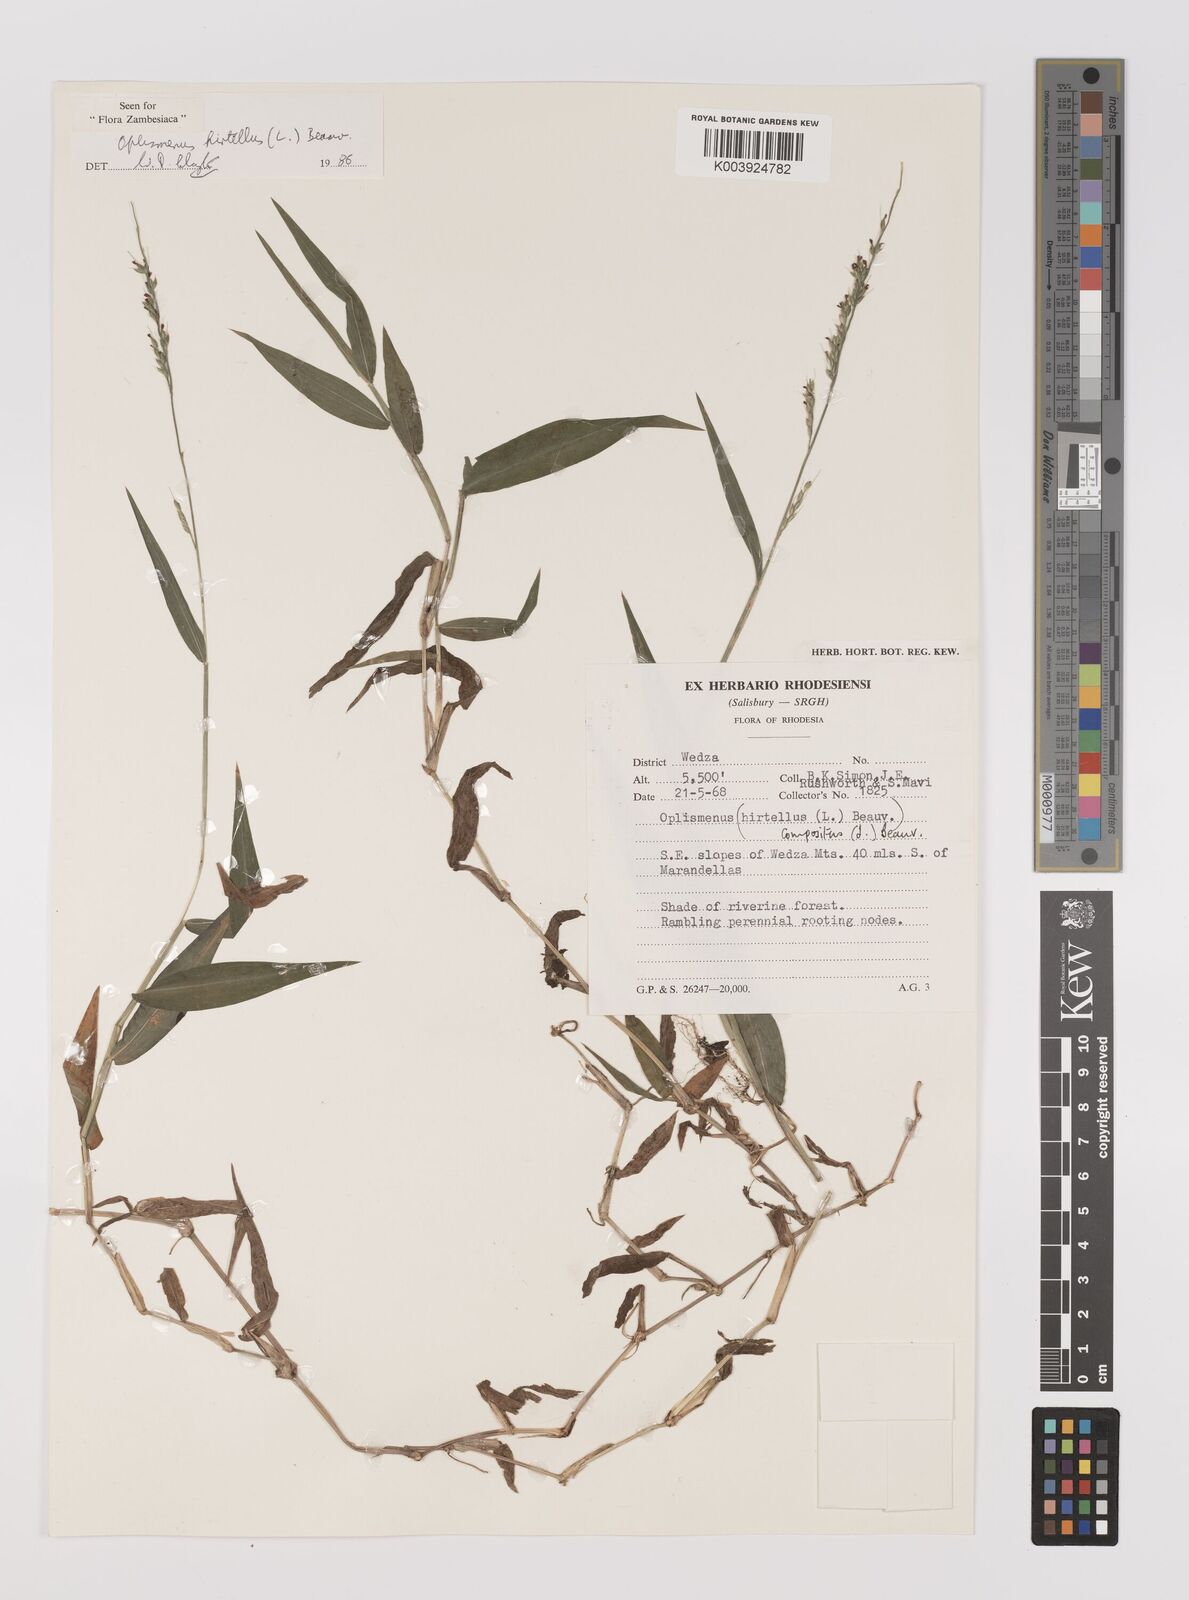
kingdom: Plantae
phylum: Tracheophyta
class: Liliopsida
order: Poales
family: Poaceae
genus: Oplismenus
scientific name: Oplismenus hirtellus
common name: Basketgrass
